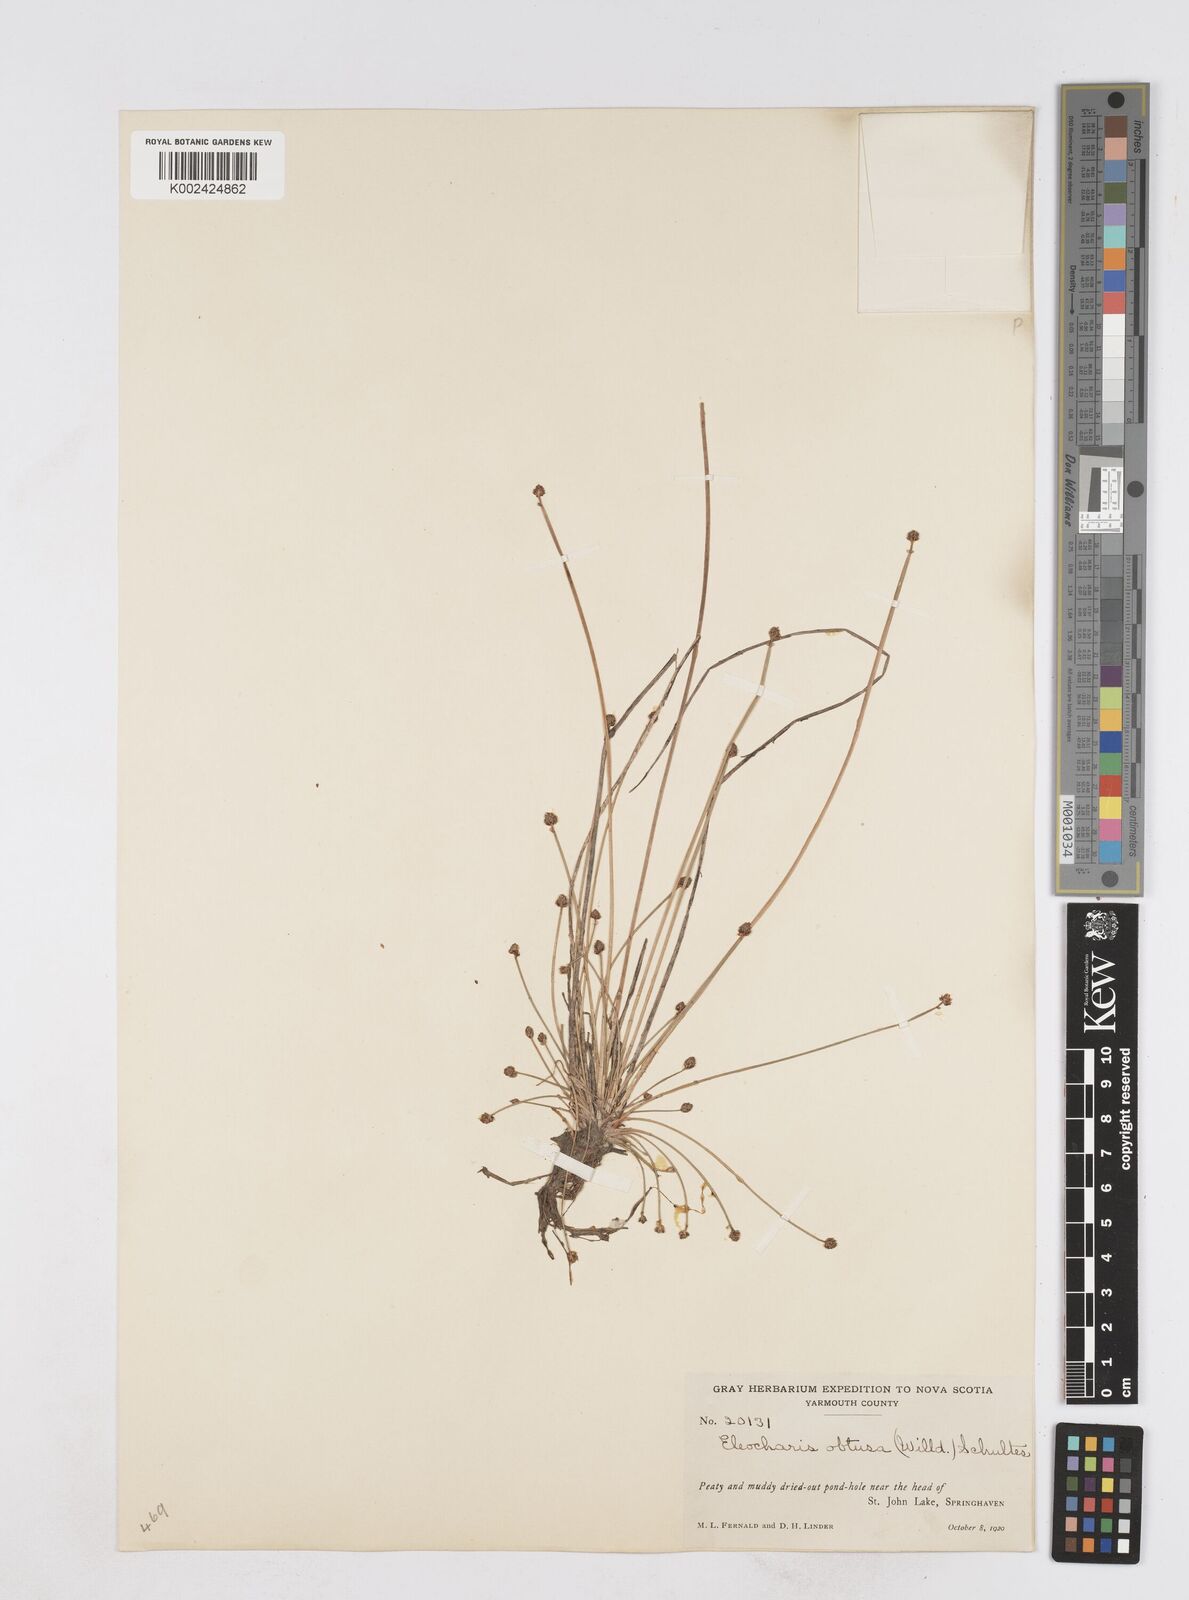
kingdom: Plantae
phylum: Tracheophyta
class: Liliopsida
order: Poales
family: Cyperaceae
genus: Eleocharis
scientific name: Eleocharis obtusa
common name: Blunt spikerush
